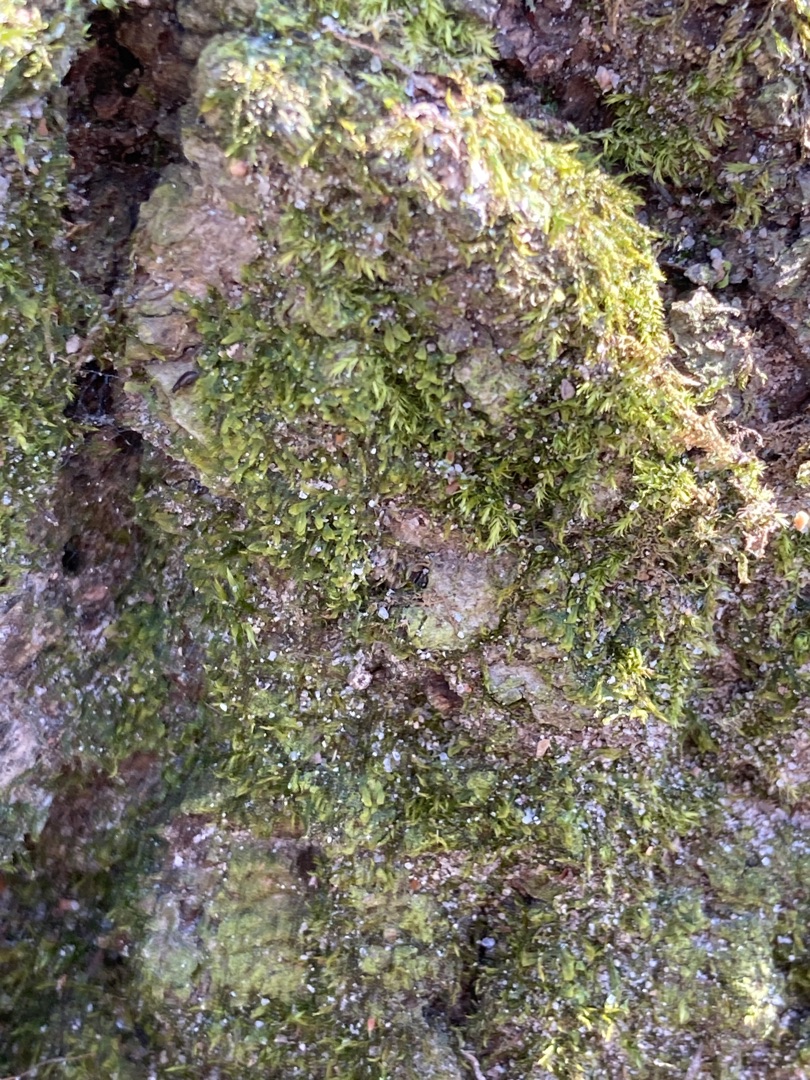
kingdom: Plantae
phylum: Marchantiophyta
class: Jungermanniopsida
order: Metzgeriales
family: Metzgeriaceae
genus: Metzgeria
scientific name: Metzgeria furcata
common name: Almindelig gaffelløv
